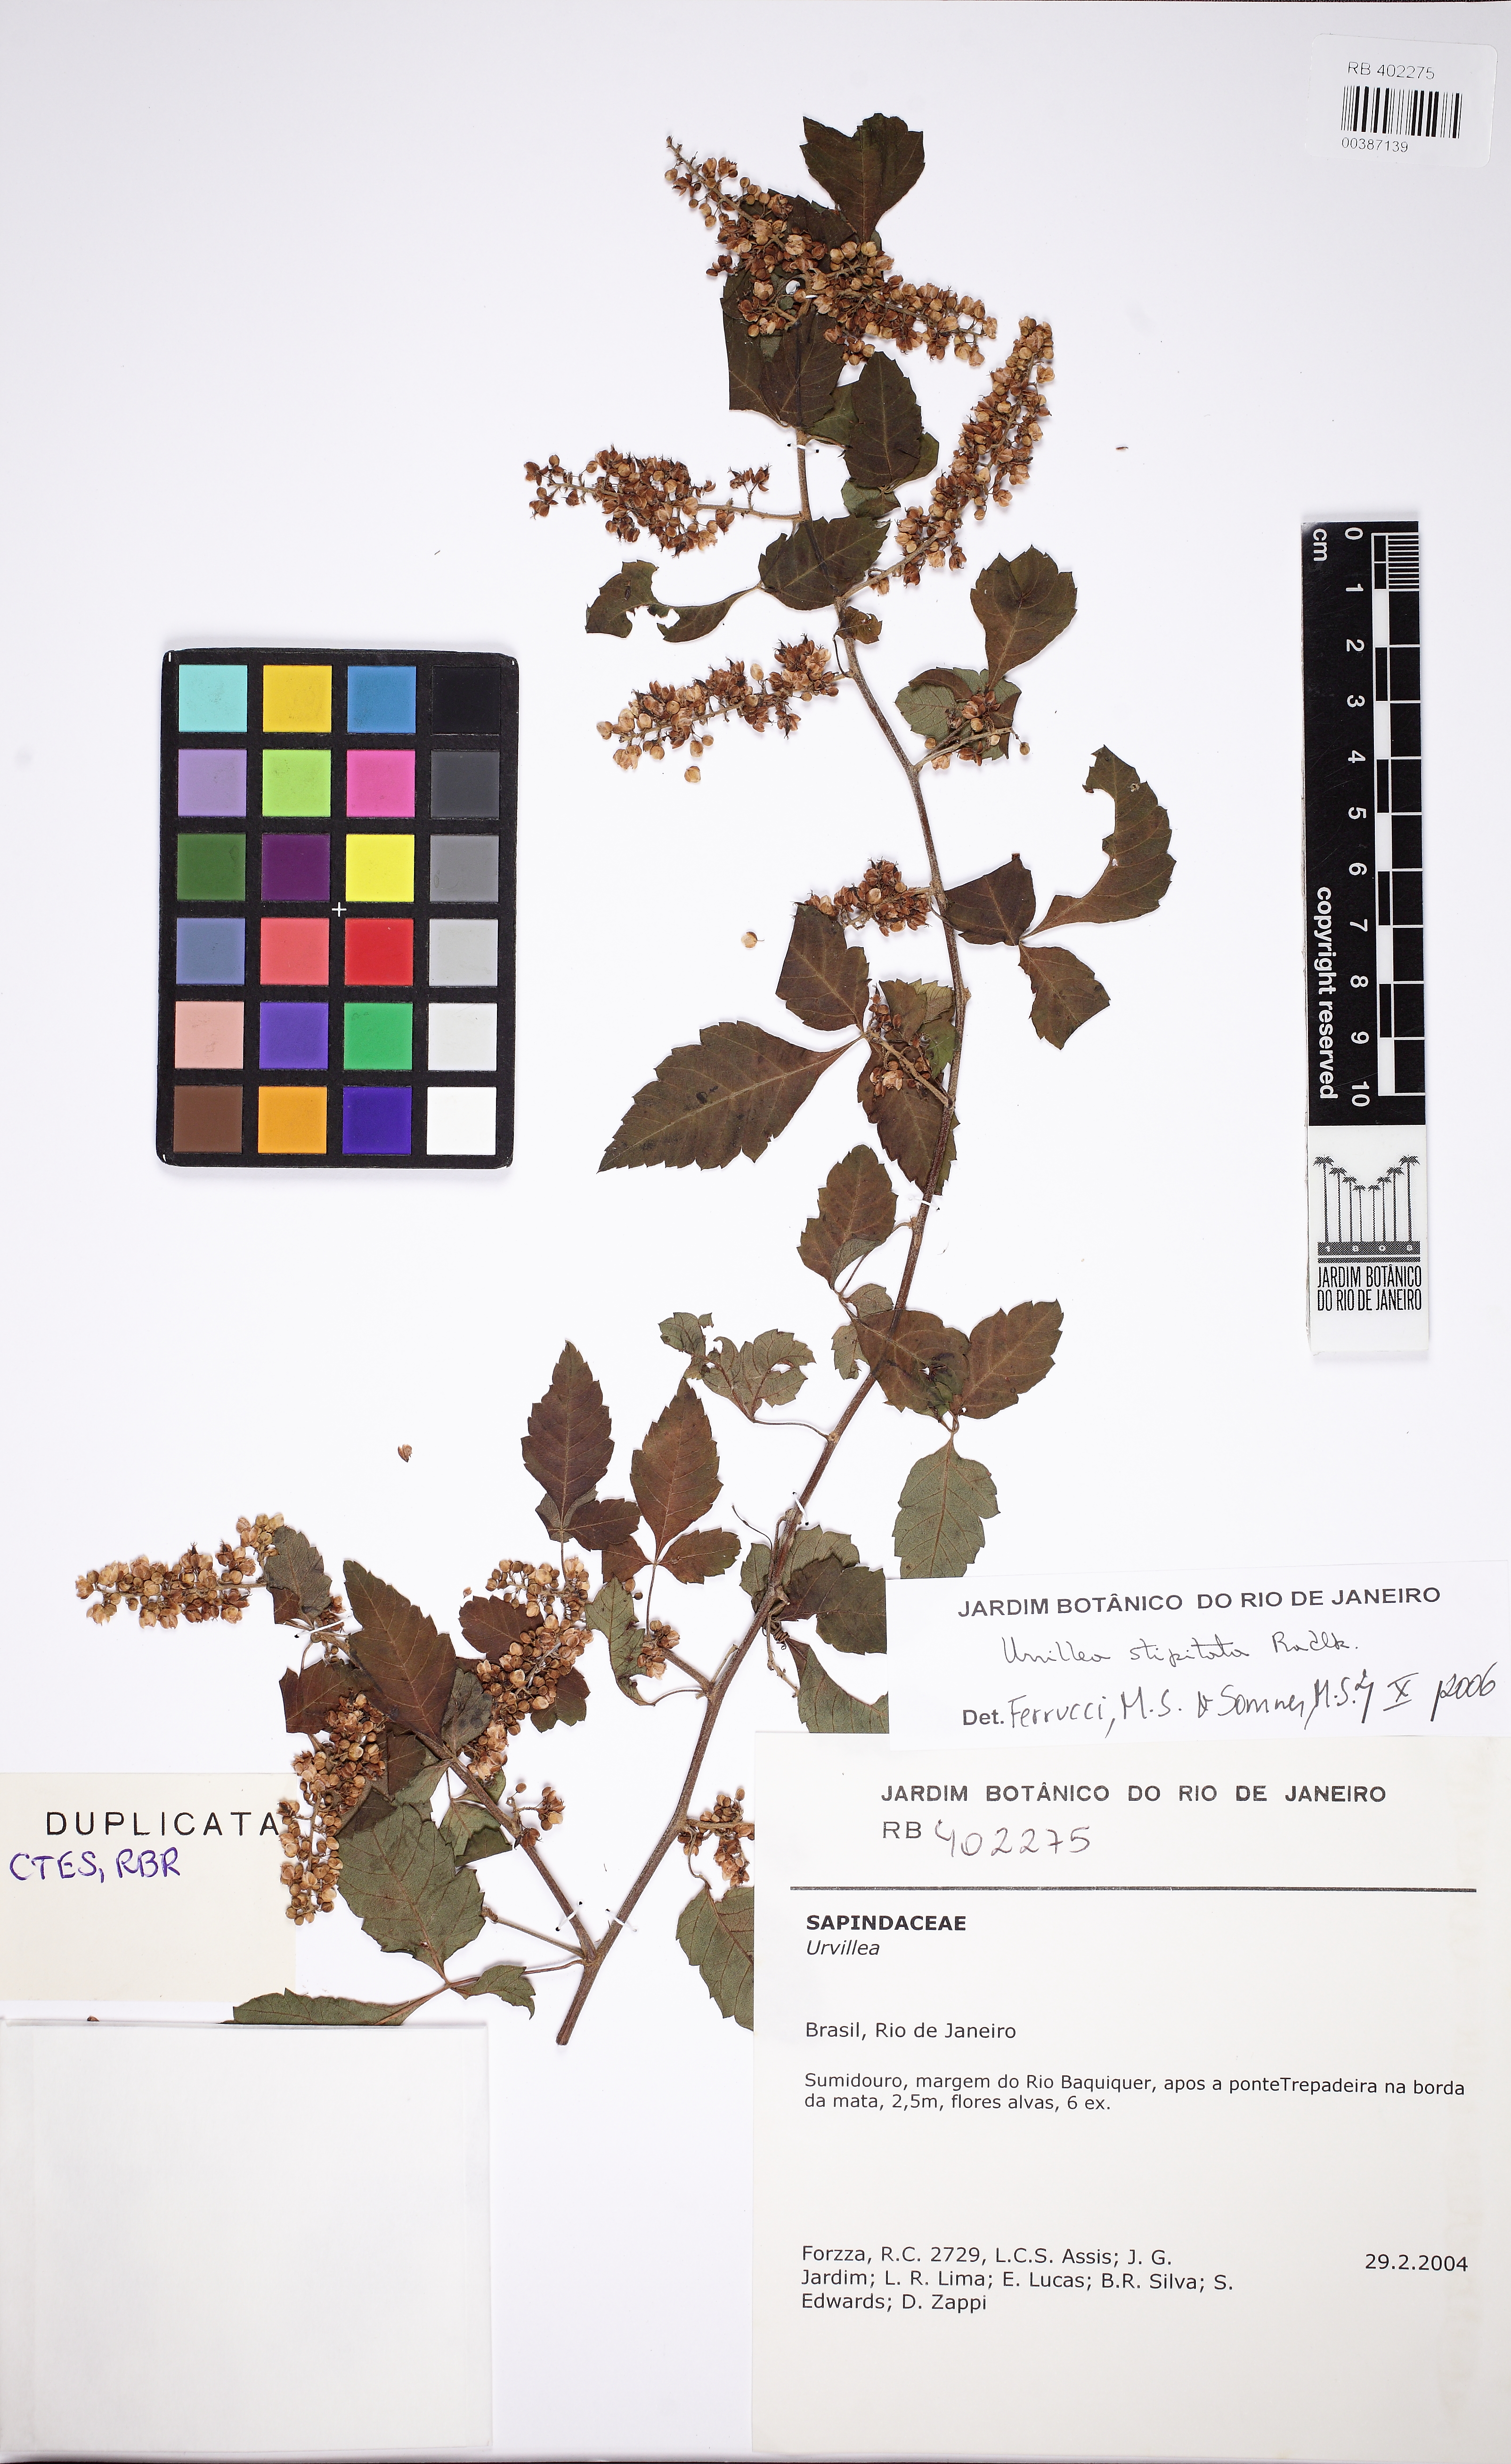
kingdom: Plantae
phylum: Tracheophyta
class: Magnoliopsida
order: Sapindales
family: Sapindaceae
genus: Urvillea
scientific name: Urvillea stipitata
